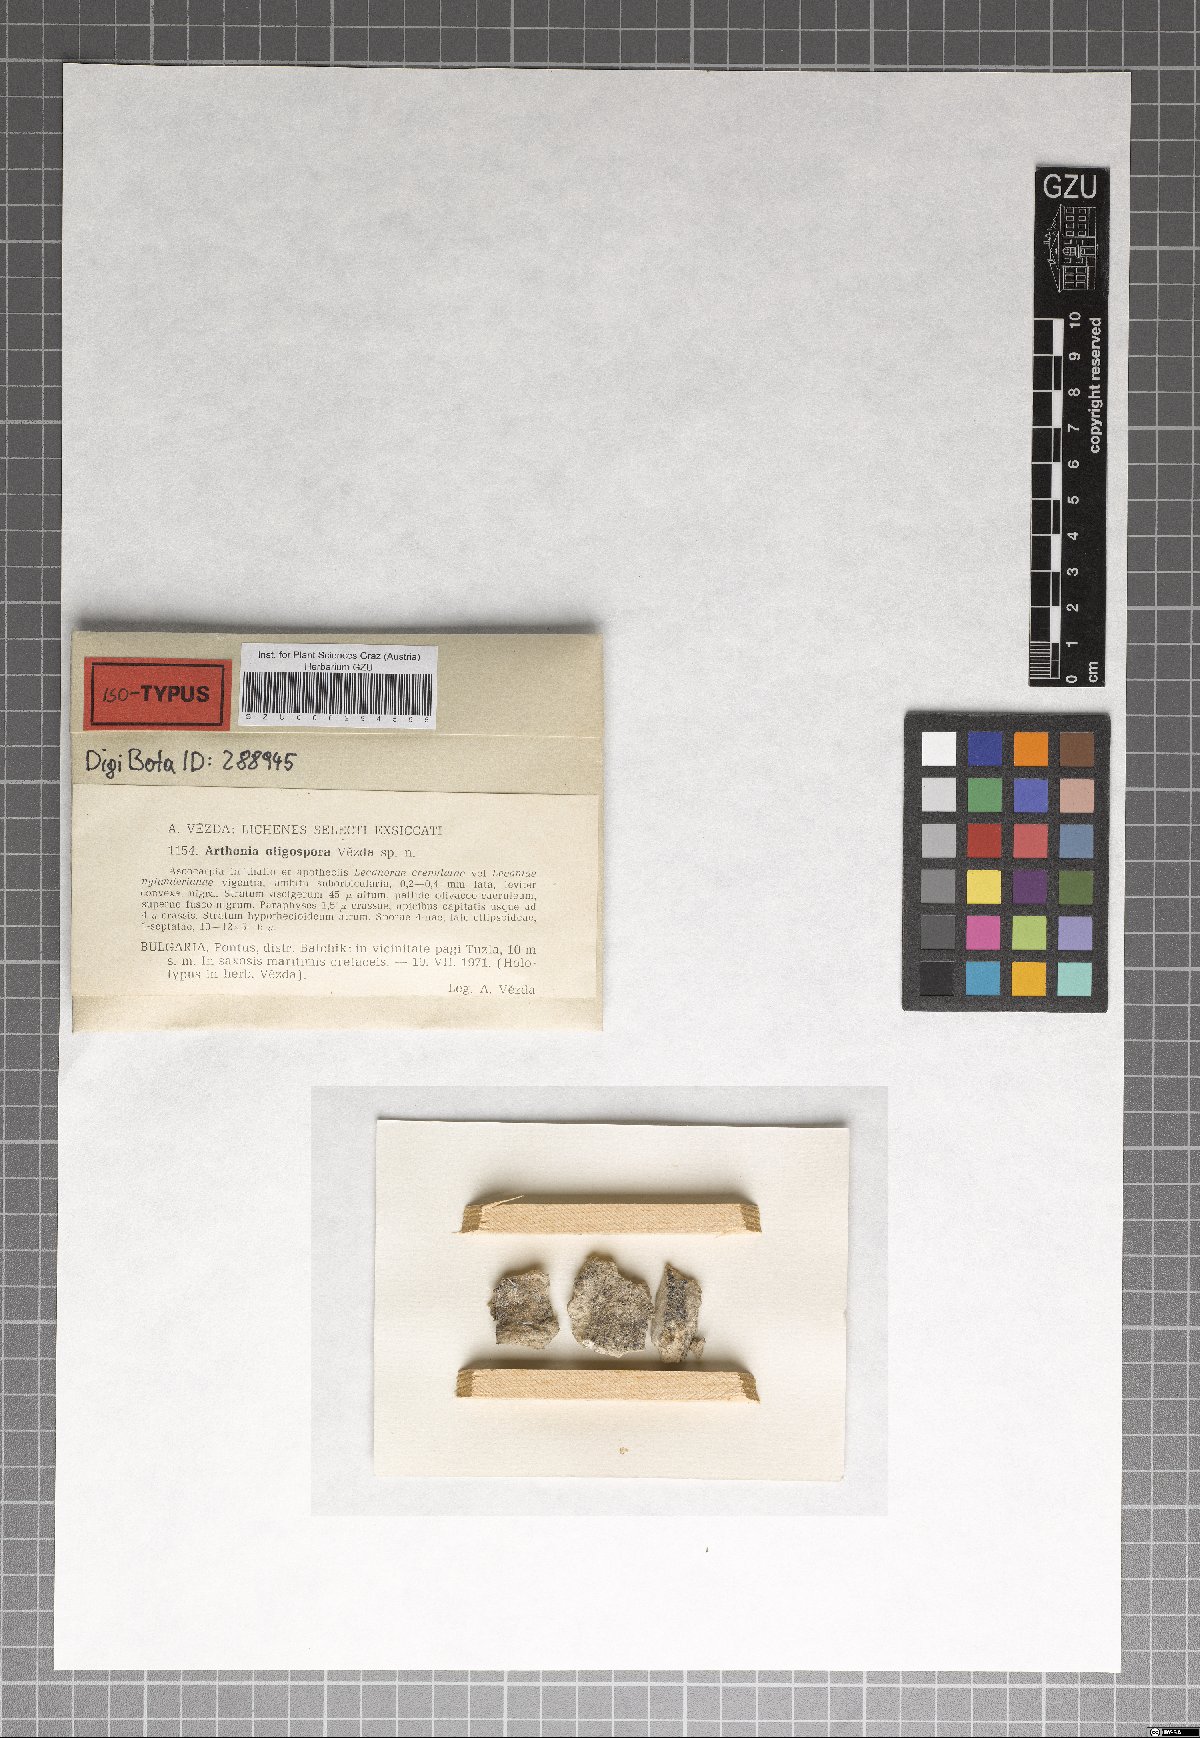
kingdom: Fungi
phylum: Ascomycota
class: Arthoniomycetes
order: Arthoniales
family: Arthoniaceae
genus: Arthonia
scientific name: Arthonia
